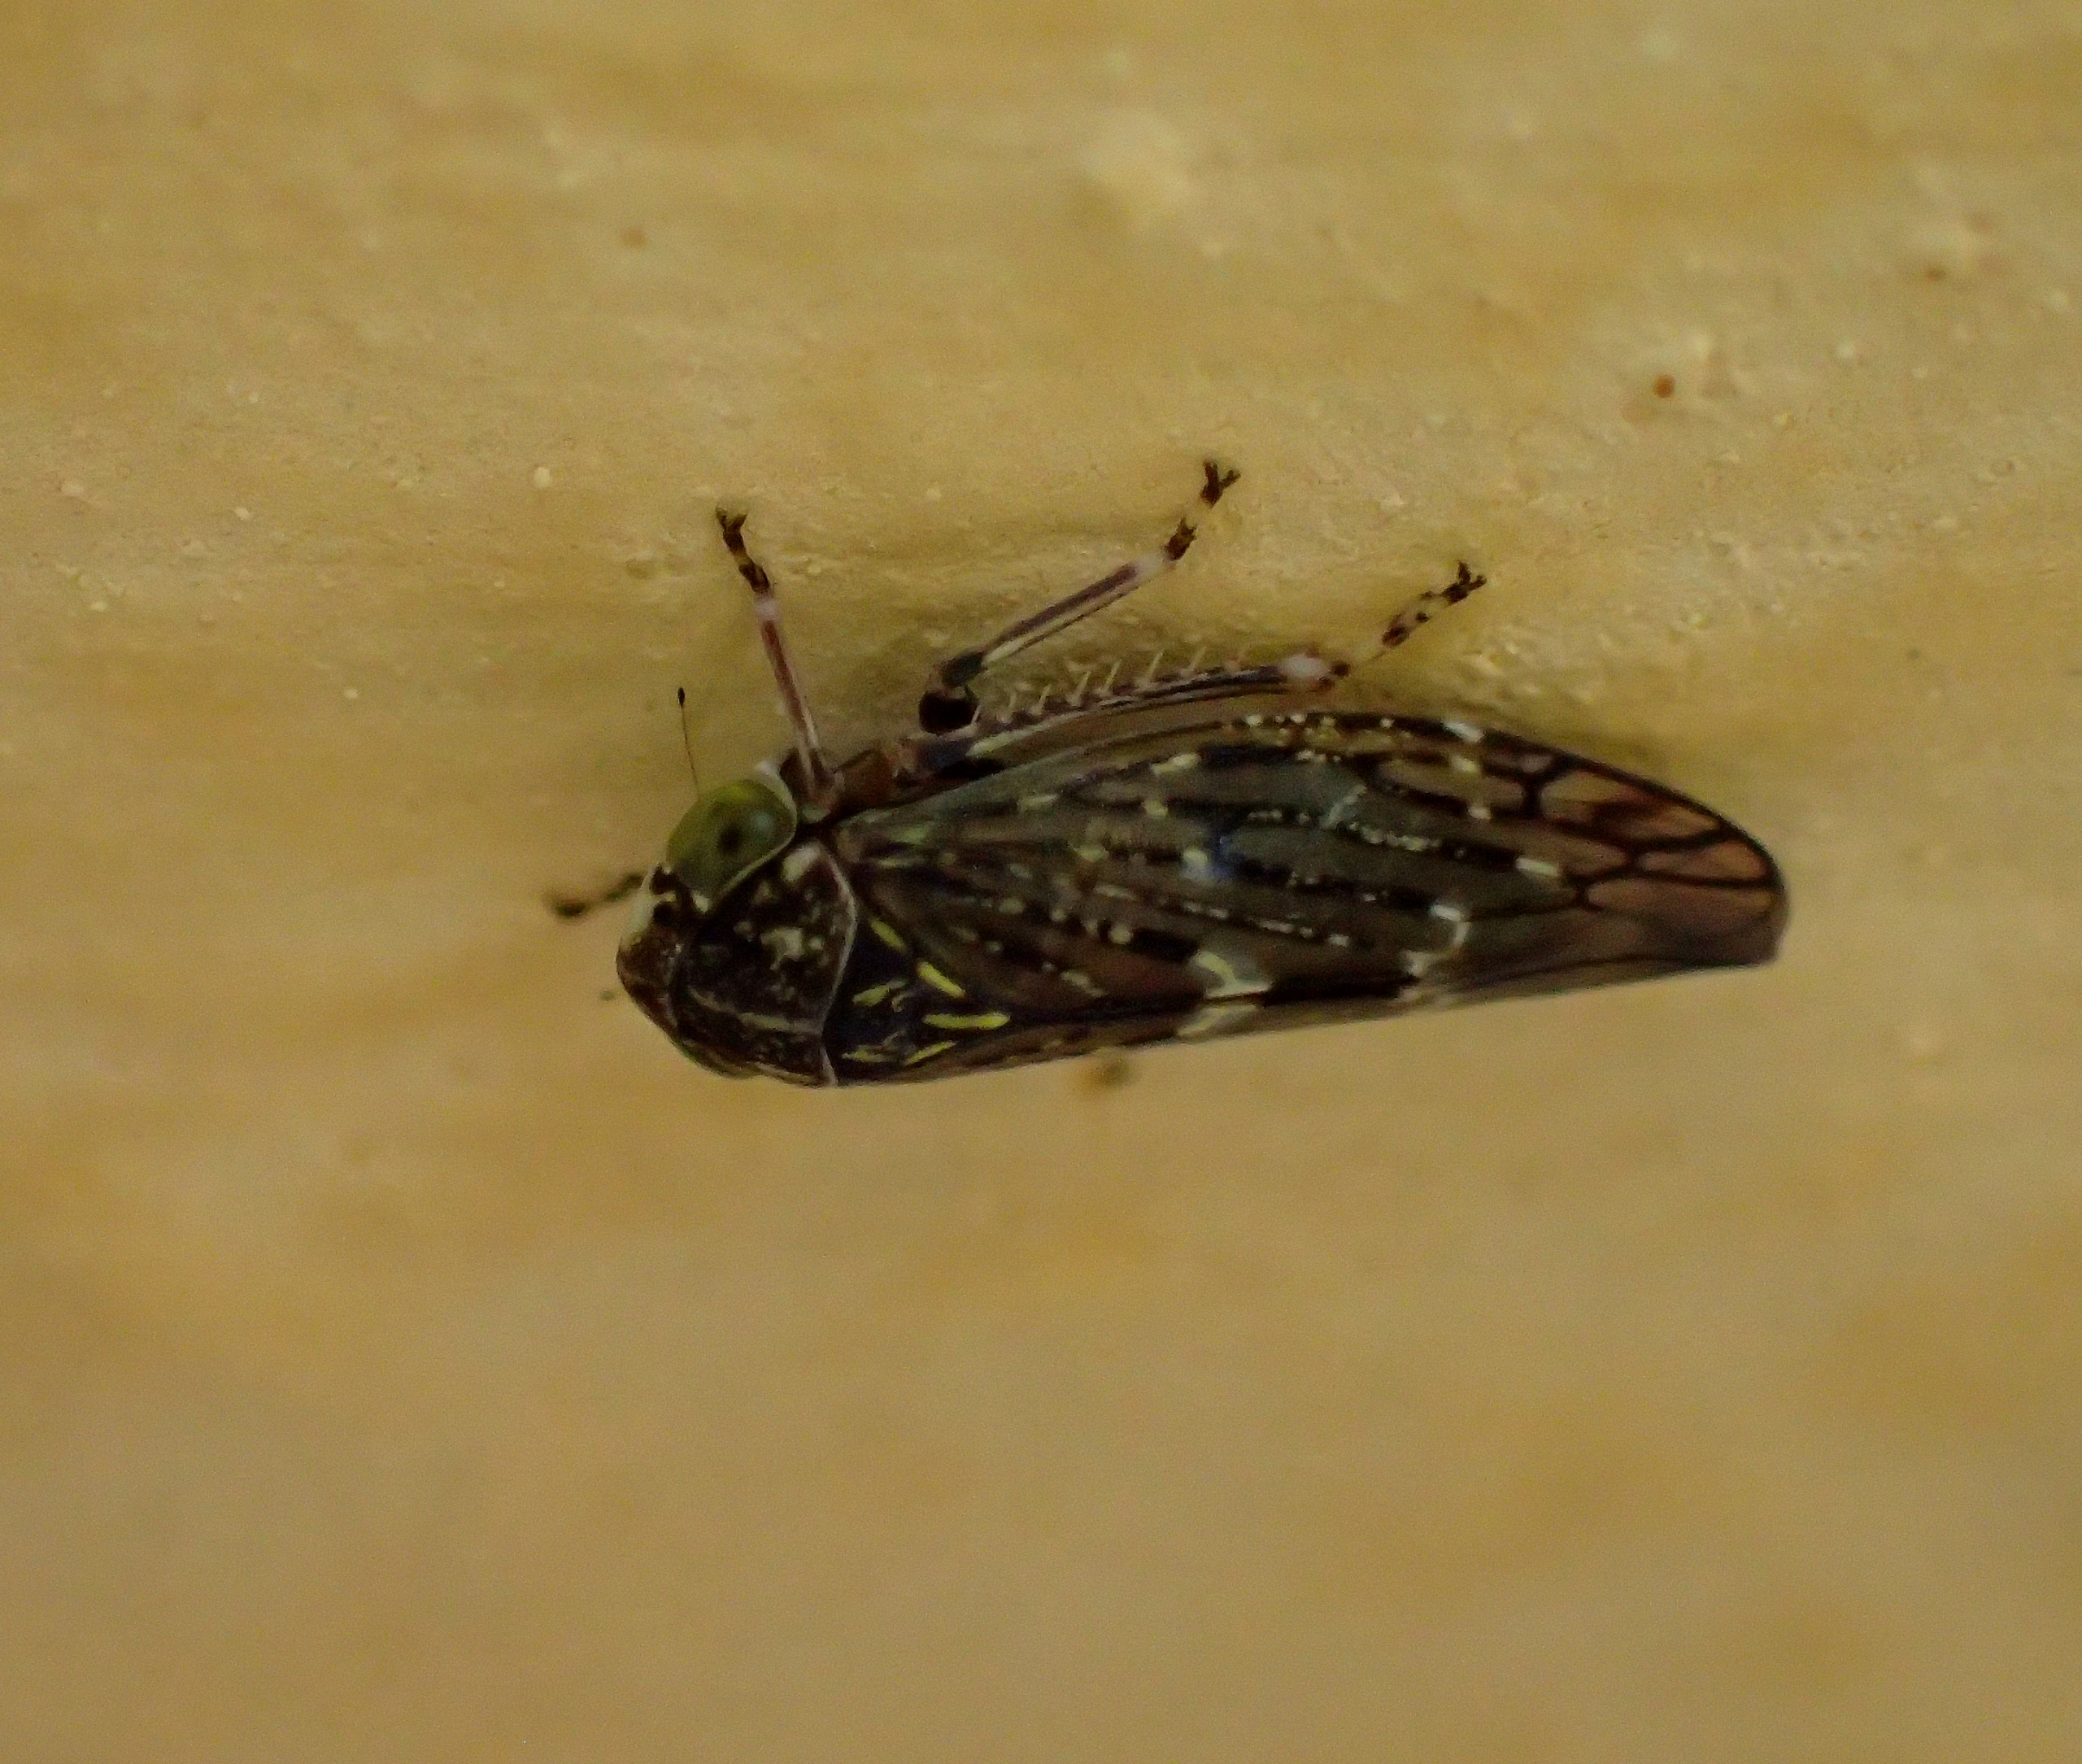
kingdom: Animalia
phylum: Arthropoda
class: Insecta
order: Hemiptera
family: Cicadellidae
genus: Acericerus
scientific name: Acericerus heydenii
